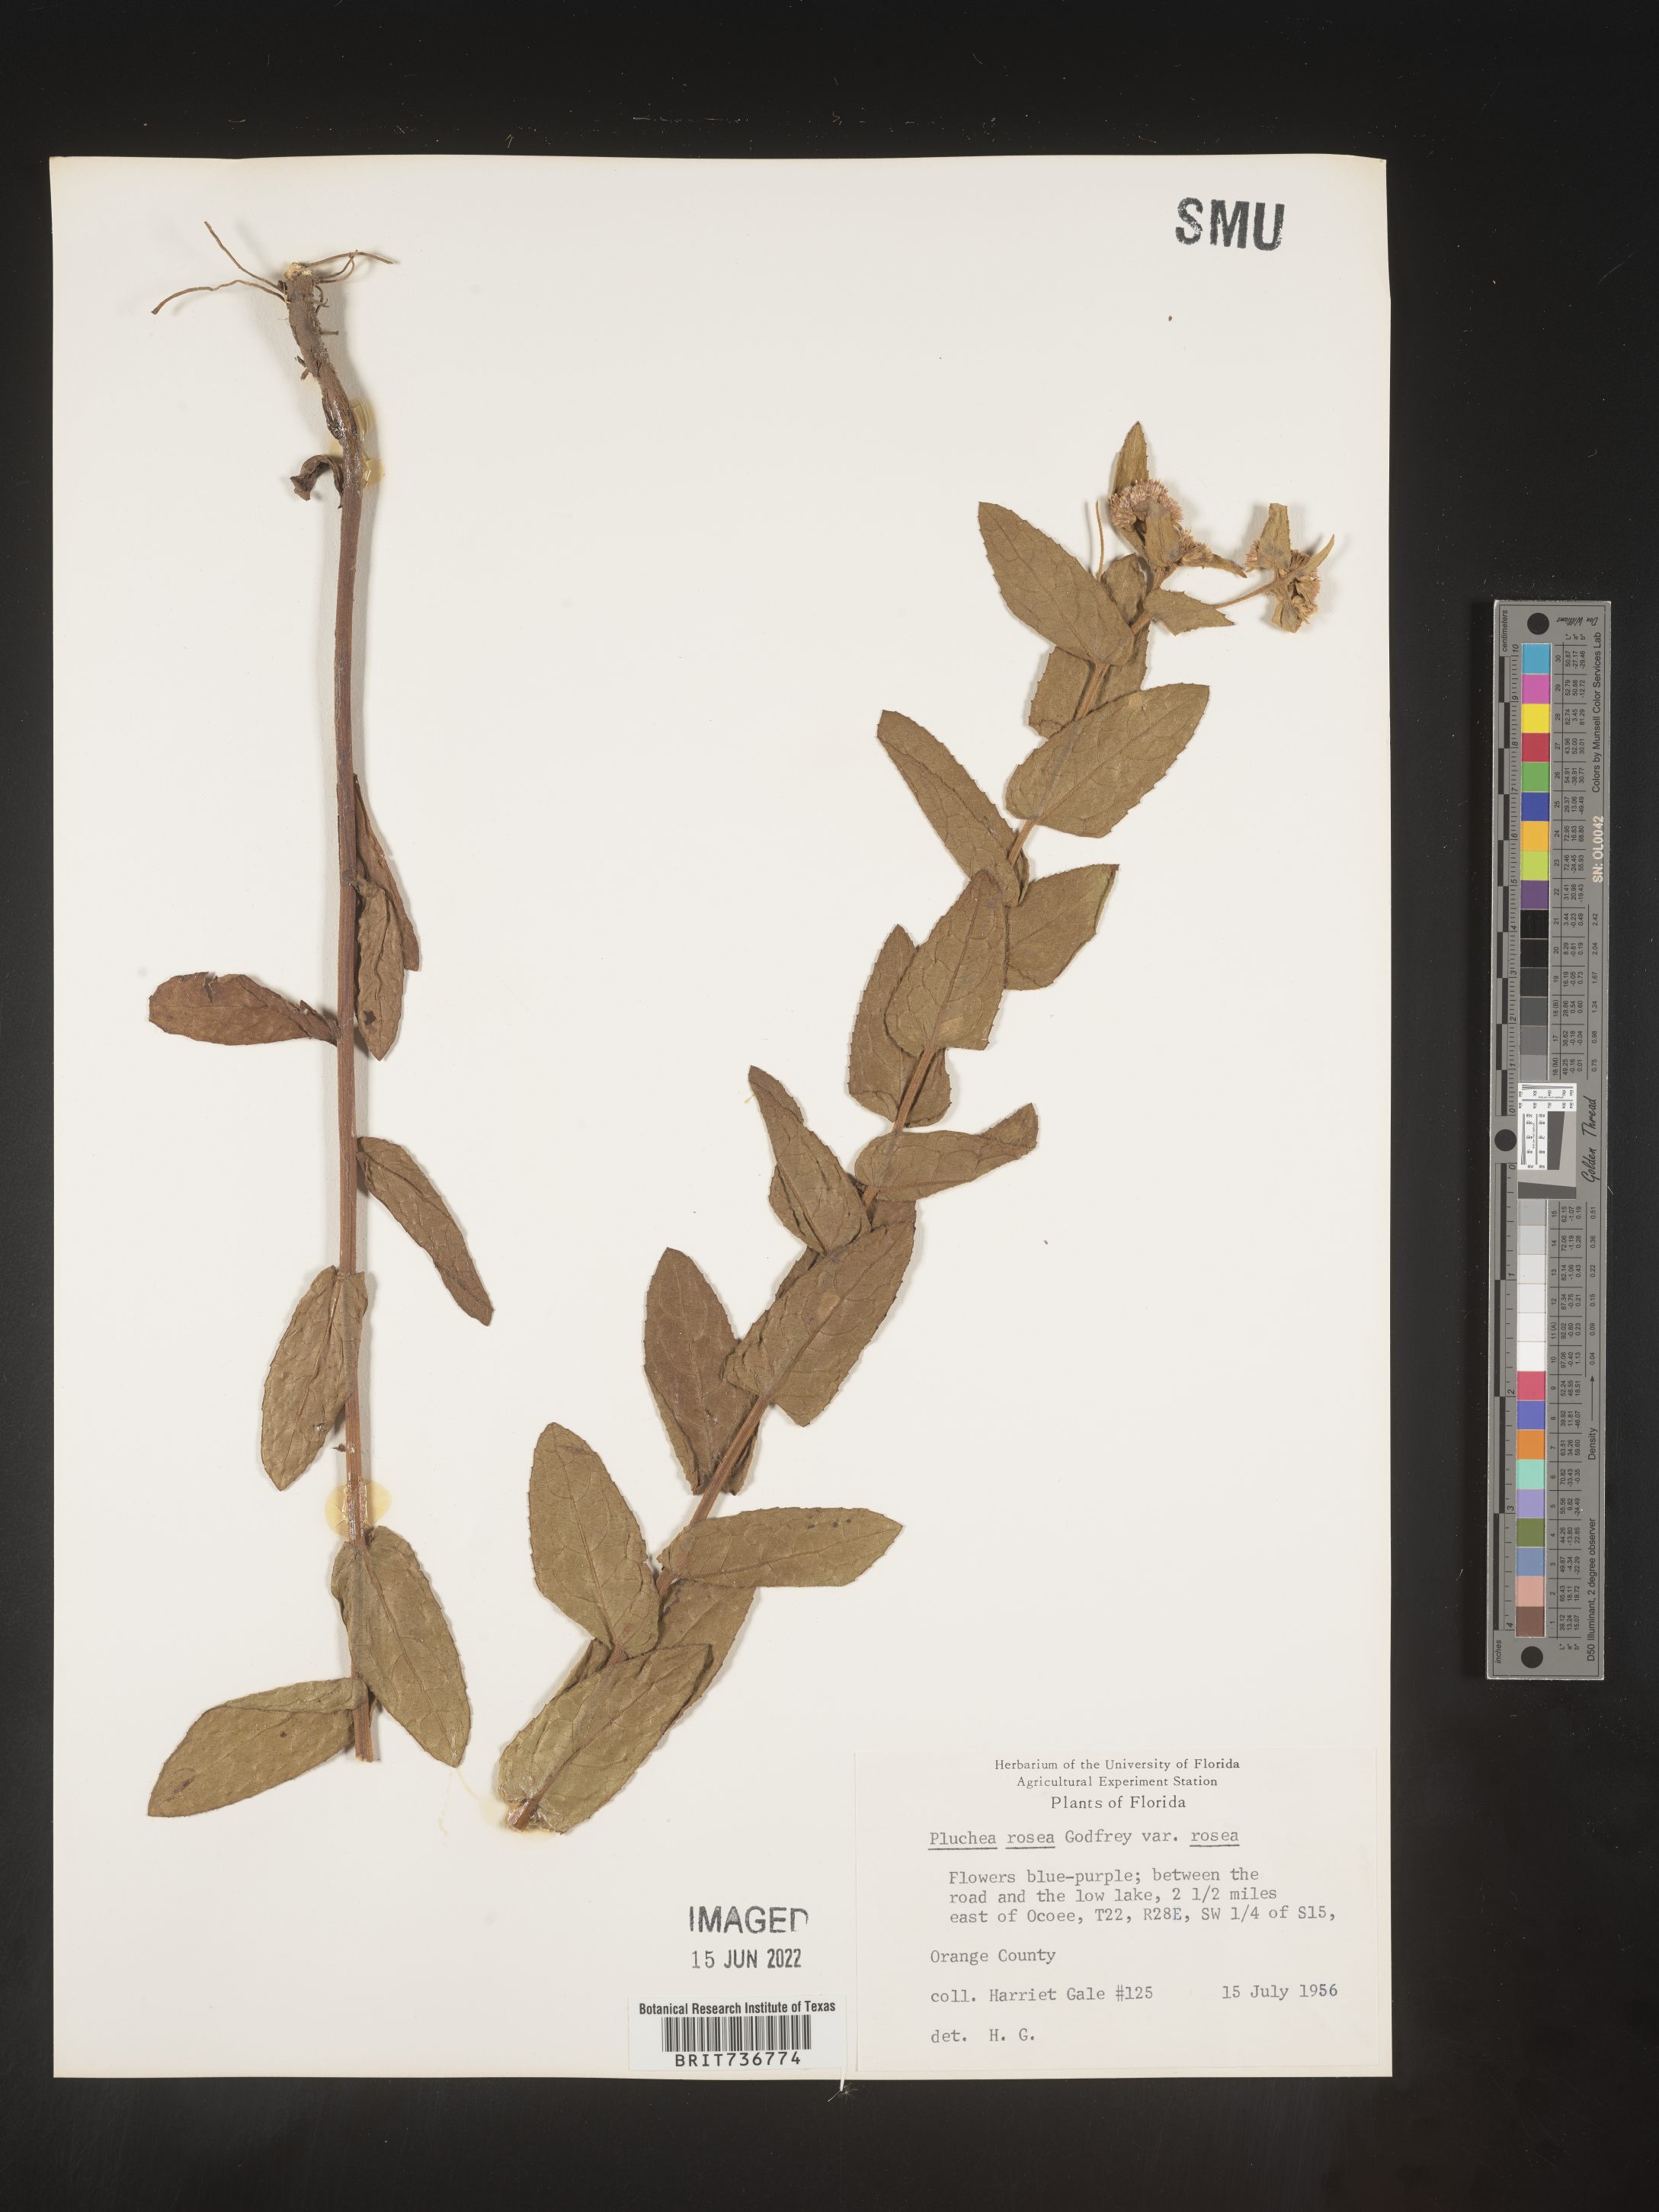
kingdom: Plantae
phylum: Tracheophyta
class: Magnoliopsida
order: Asterales
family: Asteraceae
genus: Pluchea
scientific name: Pluchea baccharis
